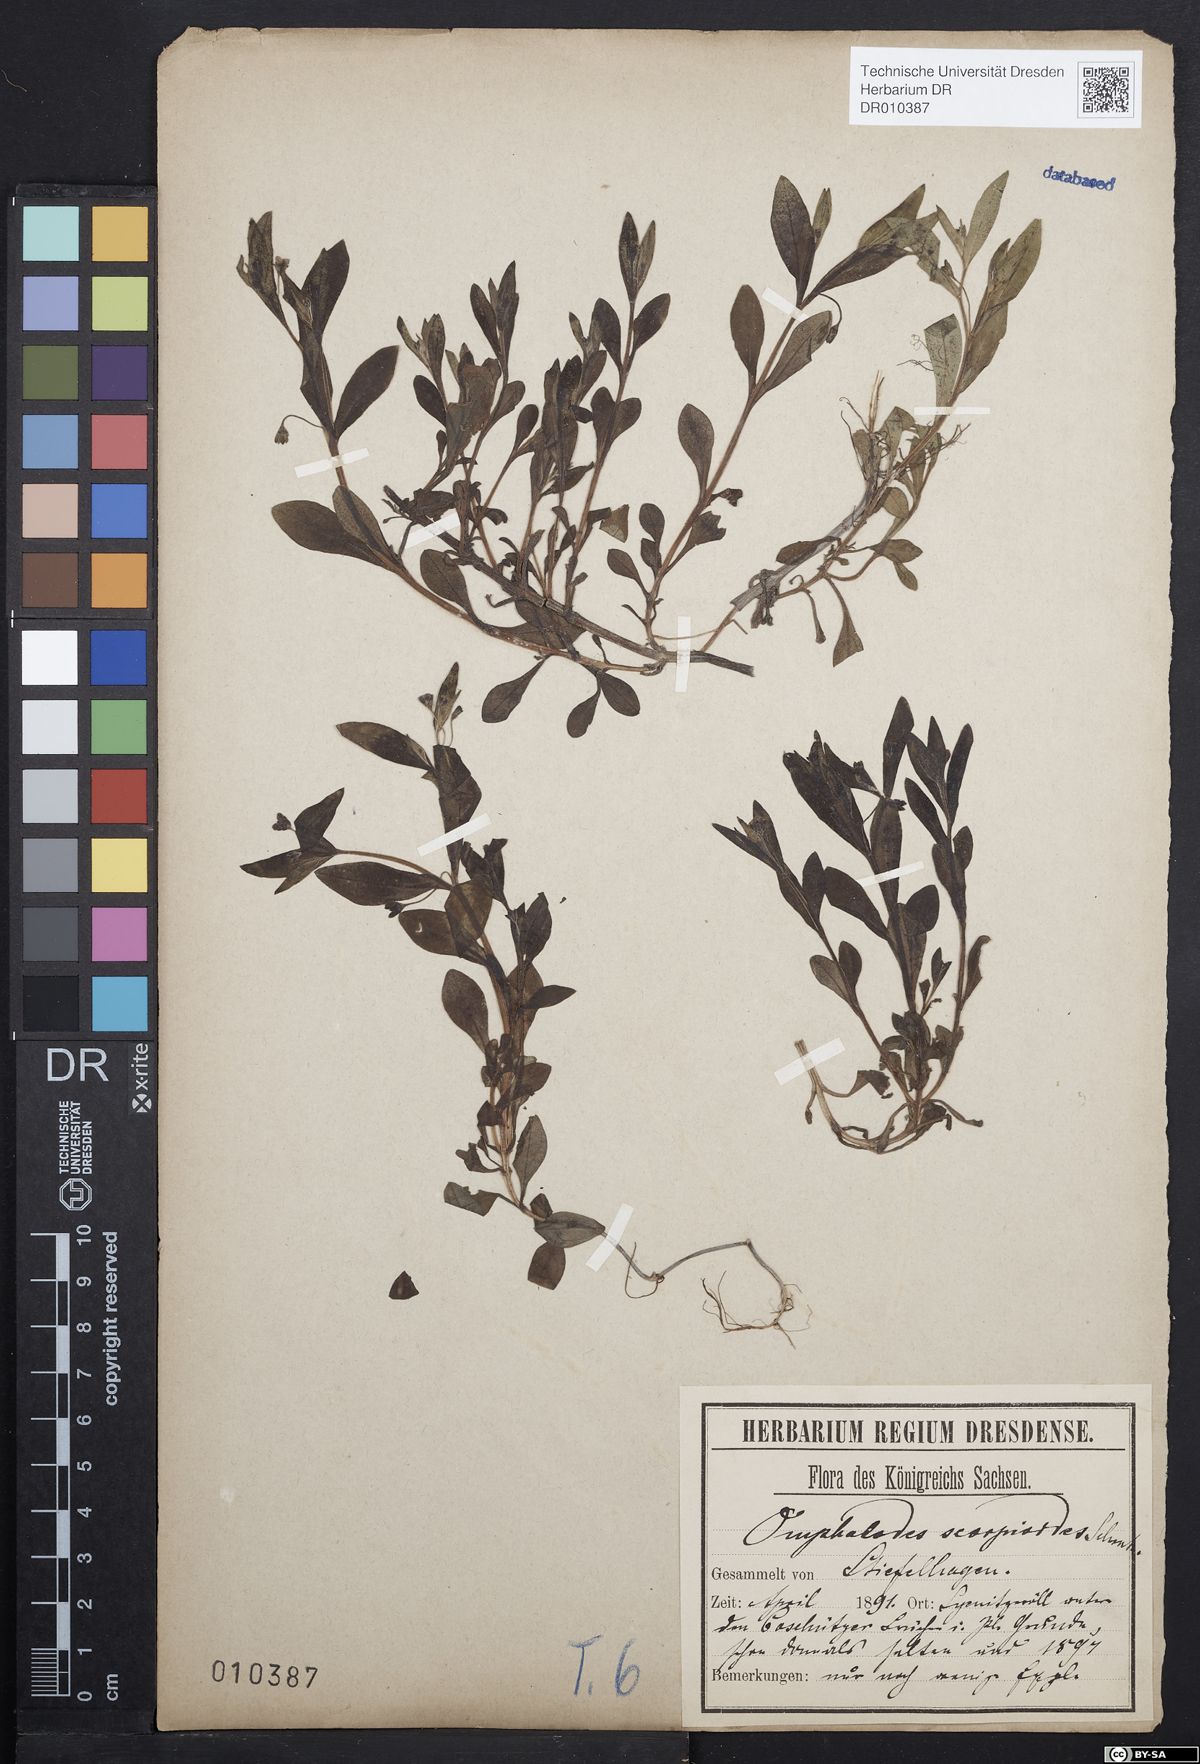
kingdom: Plantae
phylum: Tracheophyta
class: Magnoliopsida
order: Boraginales
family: Boraginaceae
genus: Memoremea
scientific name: Memoremea scorpioides
